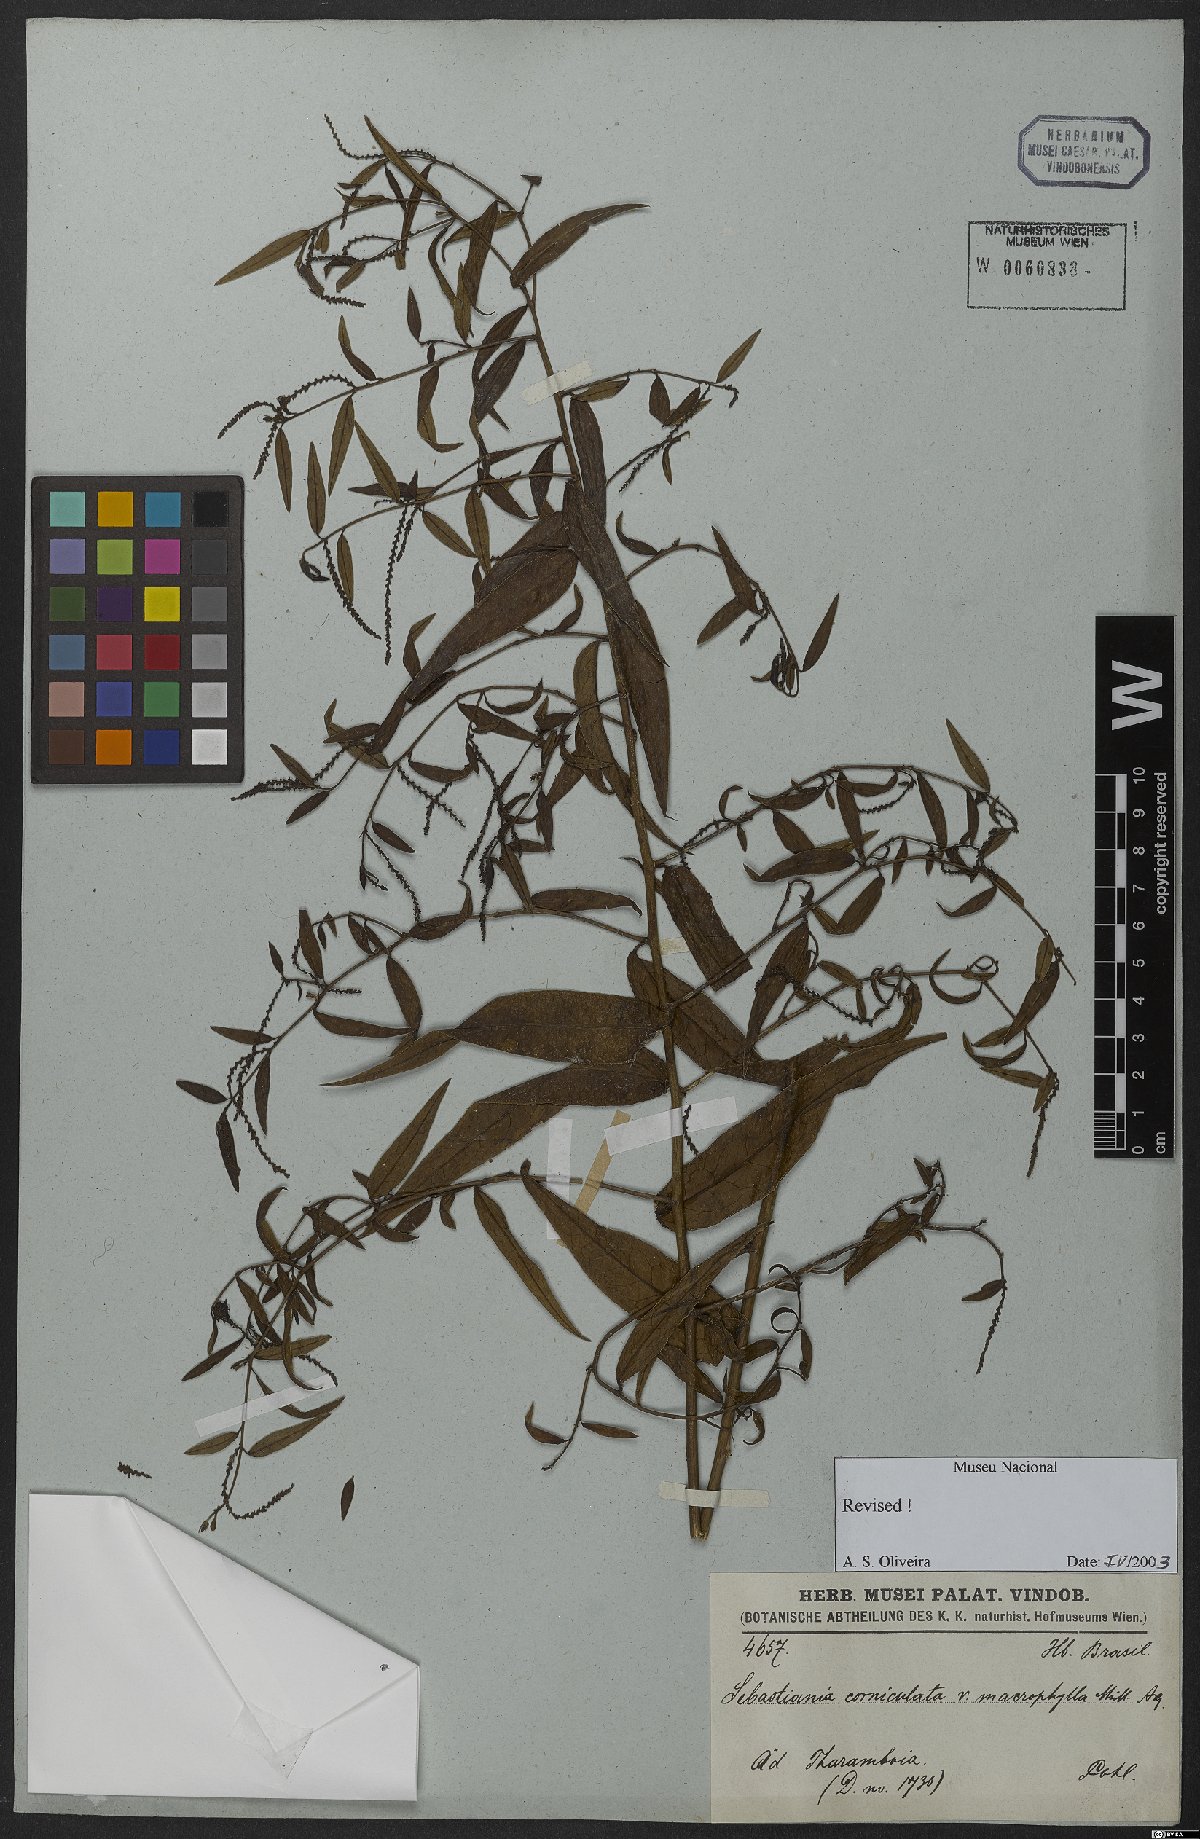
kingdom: Plantae
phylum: Tracheophyta
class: Magnoliopsida
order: Malpighiales
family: Euphorbiaceae
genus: Microstachys
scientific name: Microstachys hispida
